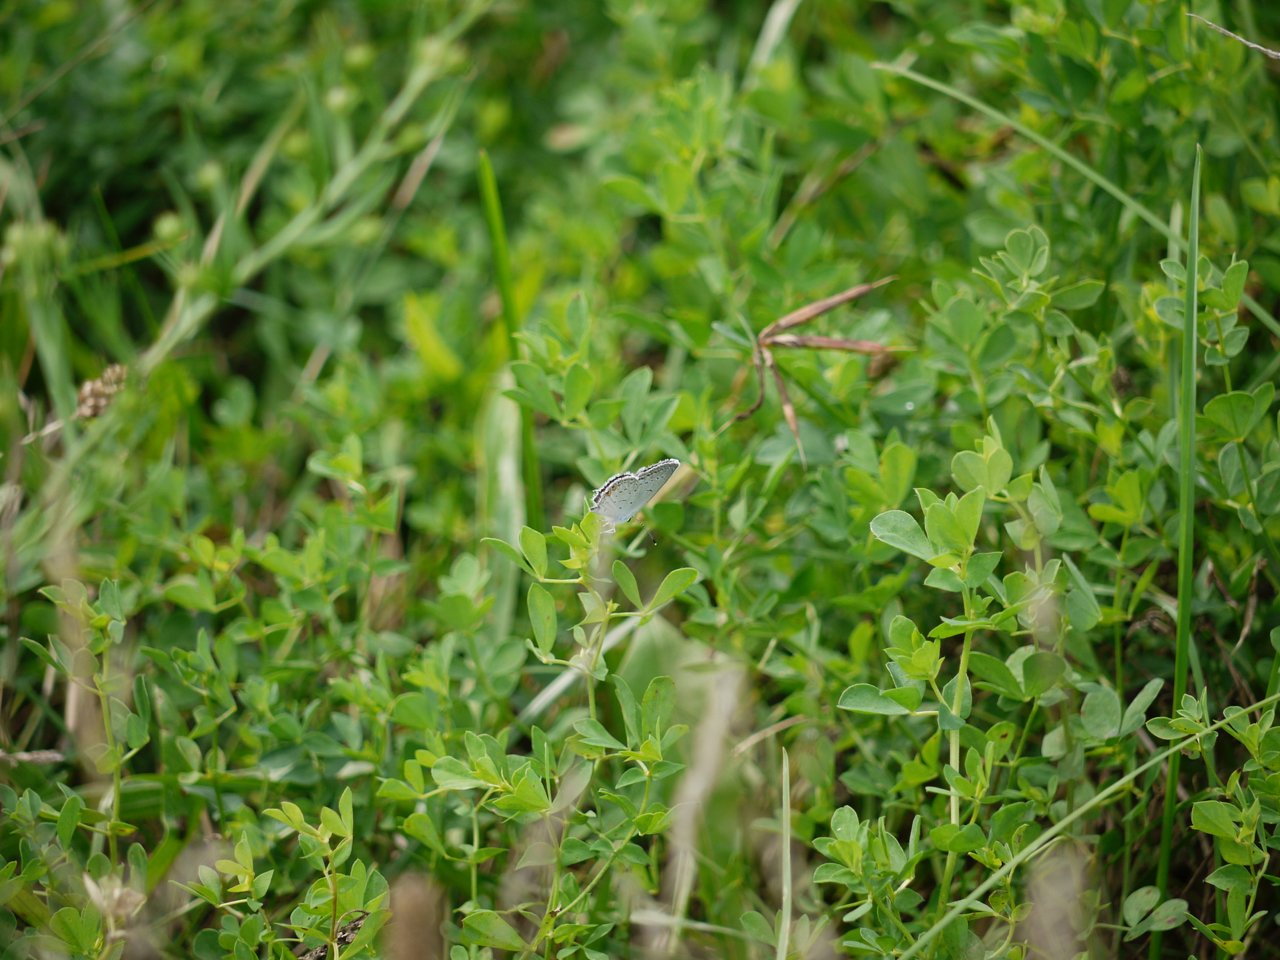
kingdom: Animalia
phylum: Arthropoda
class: Insecta
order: Lepidoptera
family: Lycaenidae
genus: Elkalyce
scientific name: Elkalyce comyntas
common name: Eastern Tailed-Blue
